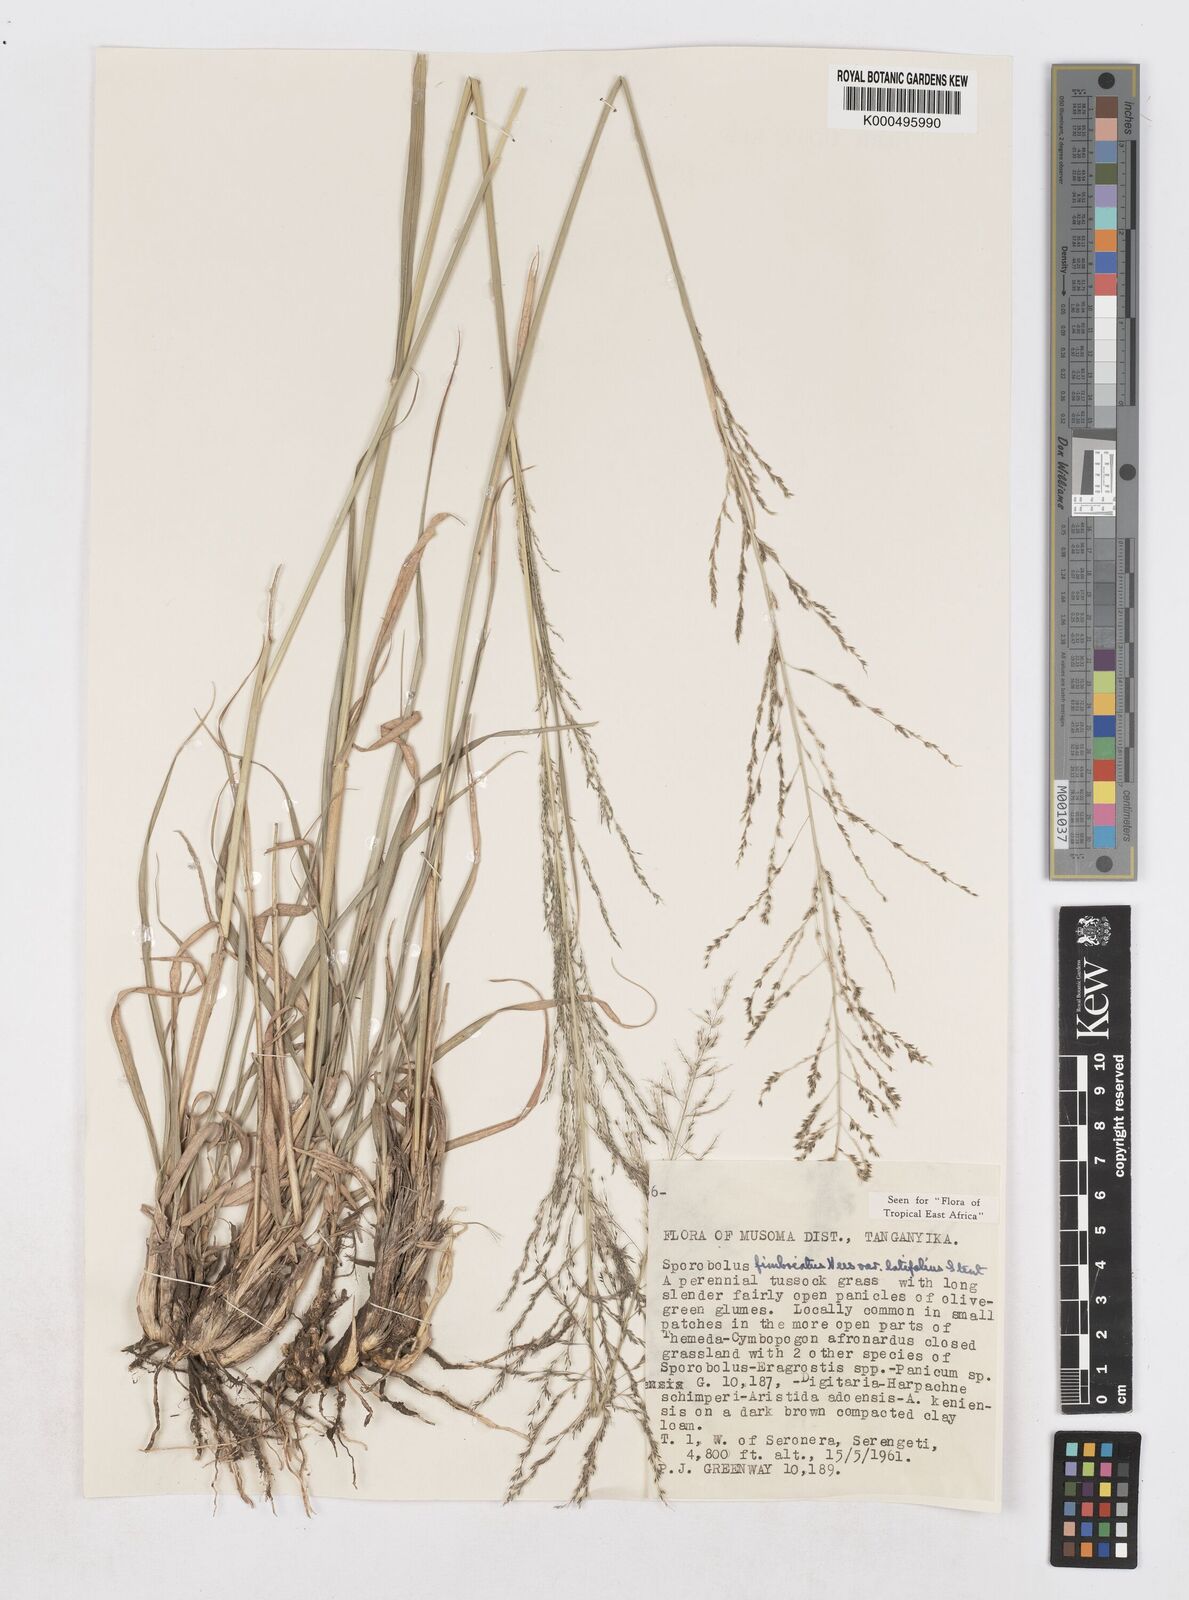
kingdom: Plantae
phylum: Tracheophyta
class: Liliopsida
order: Poales
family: Poaceae
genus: Sporobolus
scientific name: Sporobolus fimbriatus
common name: Fringed dropseed
